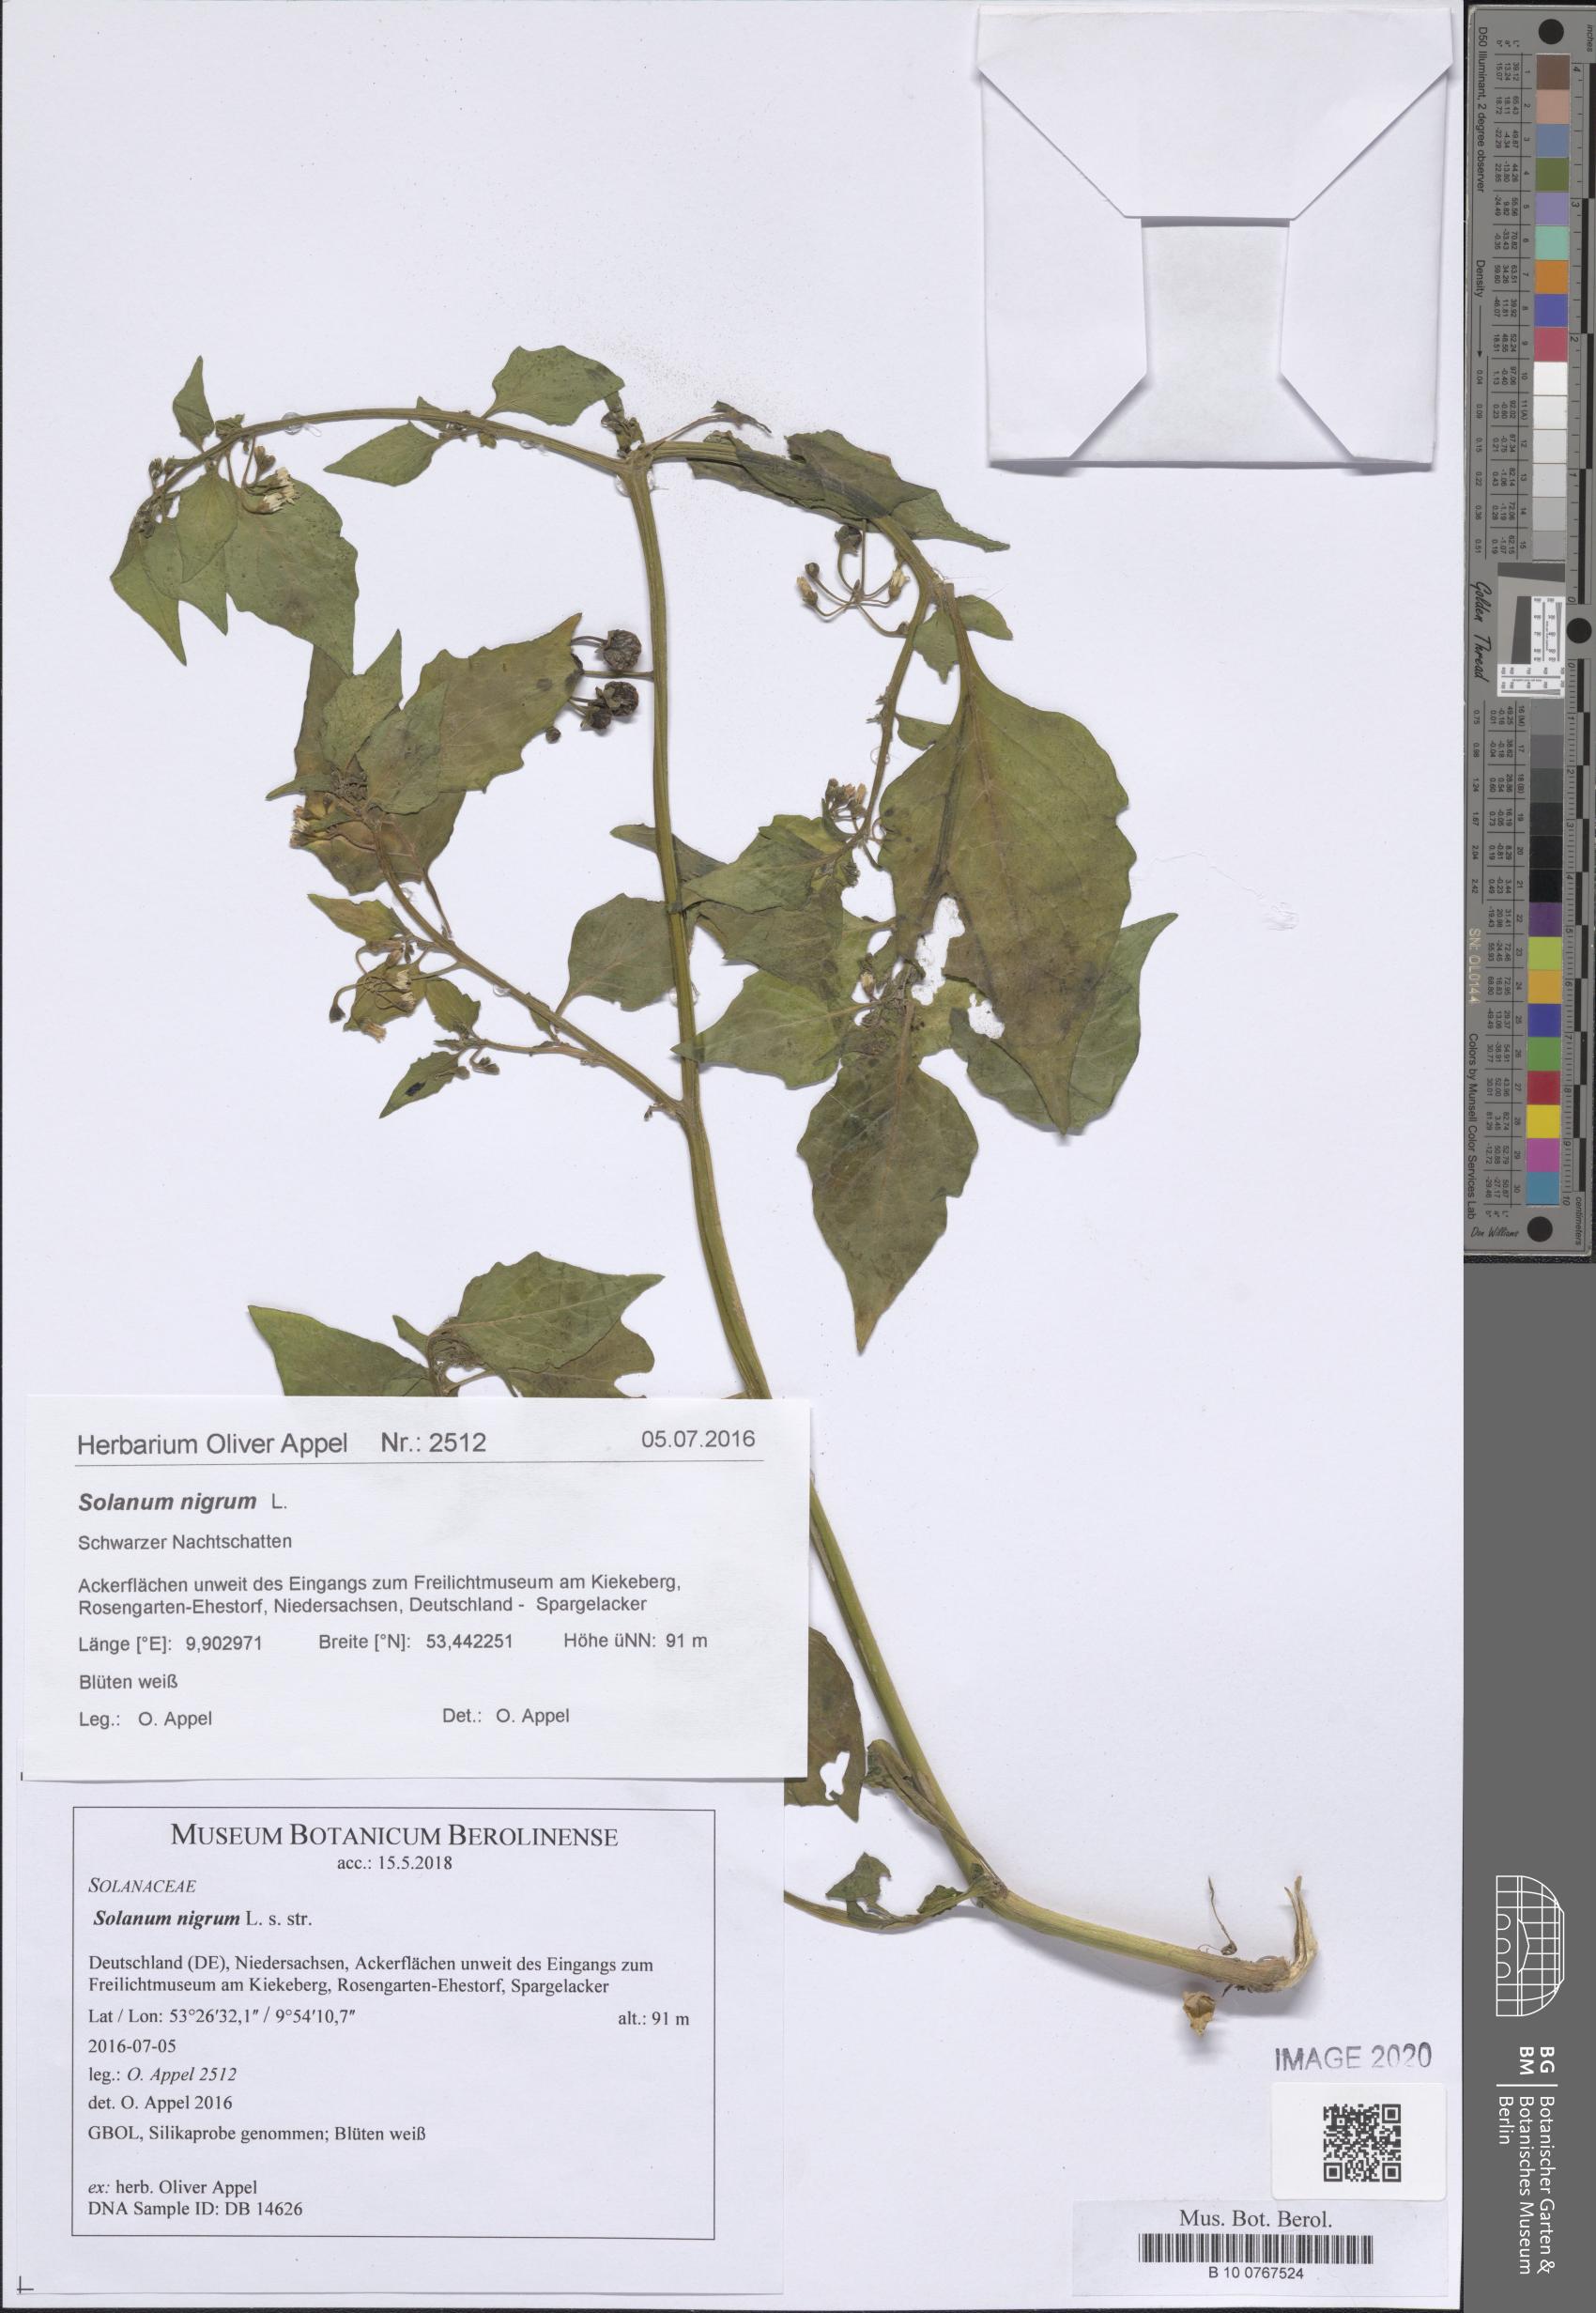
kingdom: Plantae
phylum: Tracheophyta
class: Magnoliopsida
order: Solanales
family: Solanaceae
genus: Solanum
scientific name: Solanum nigrum
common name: Black nightshade
